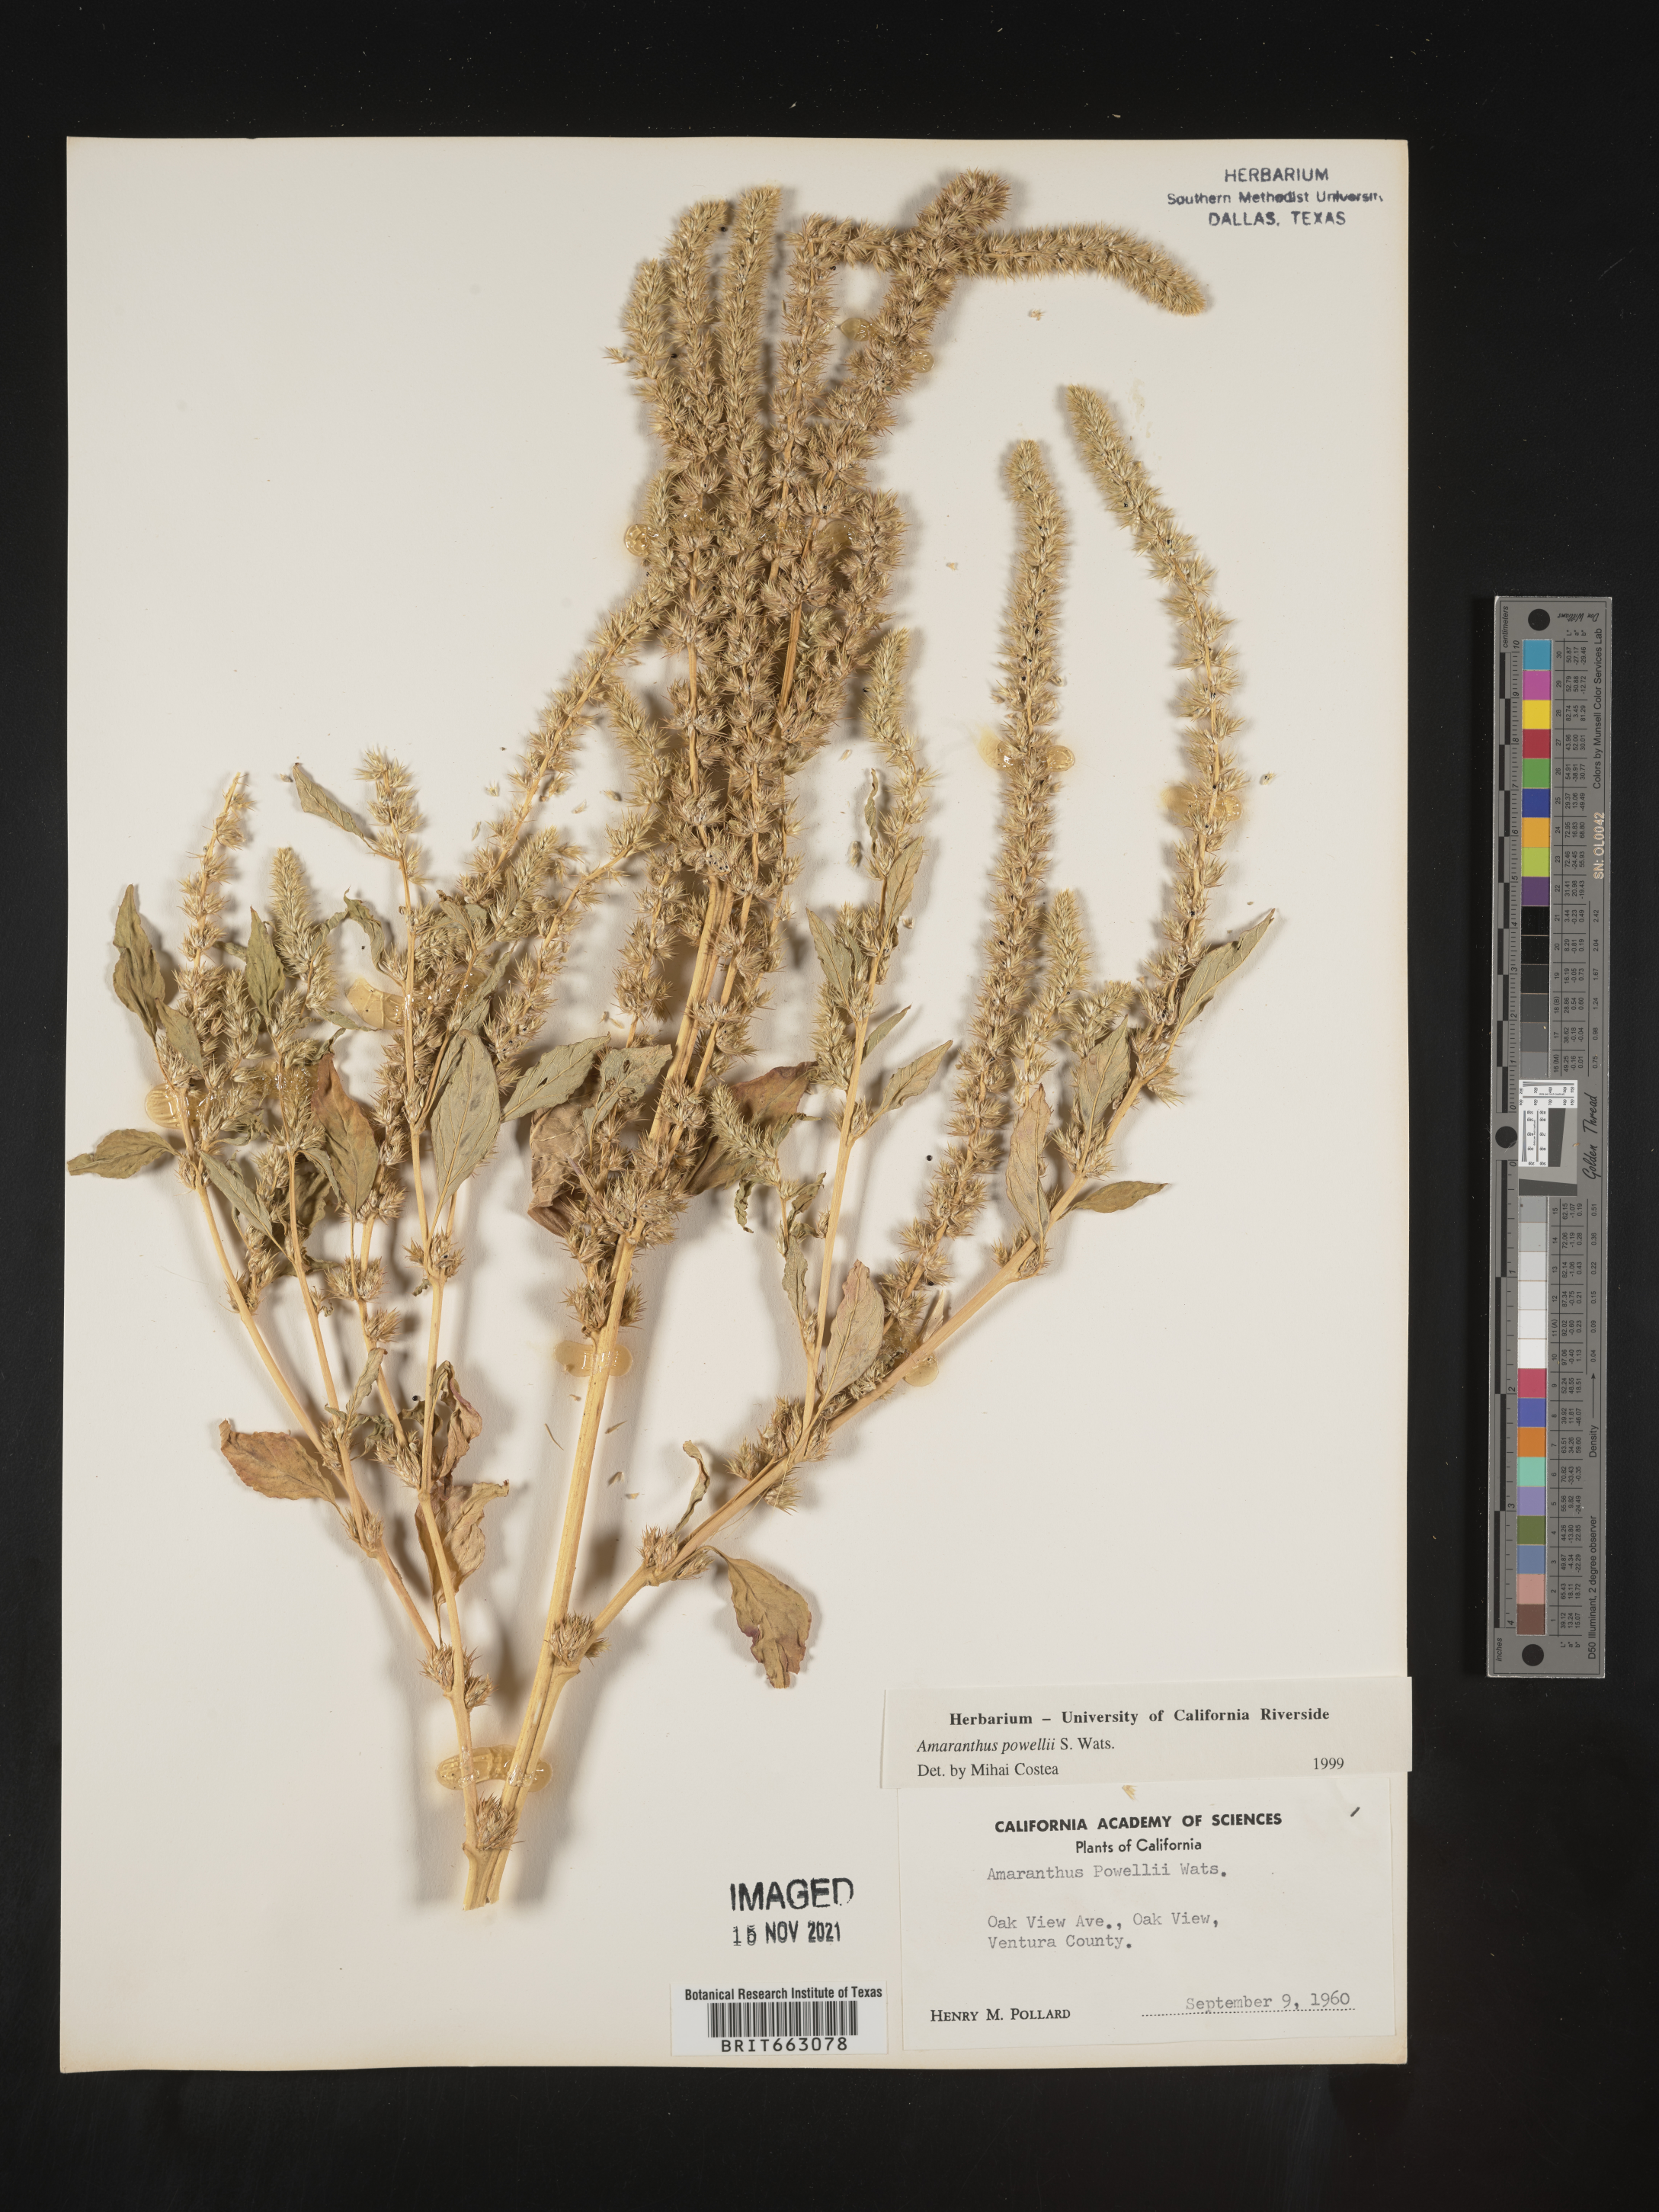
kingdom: Plantae
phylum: Tracheophyta
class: Magnoliopsida
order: Caryophyllales
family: Amaranthaceae
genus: Amaranthus
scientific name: Amaranthus powellii
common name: Powell's amaranth
